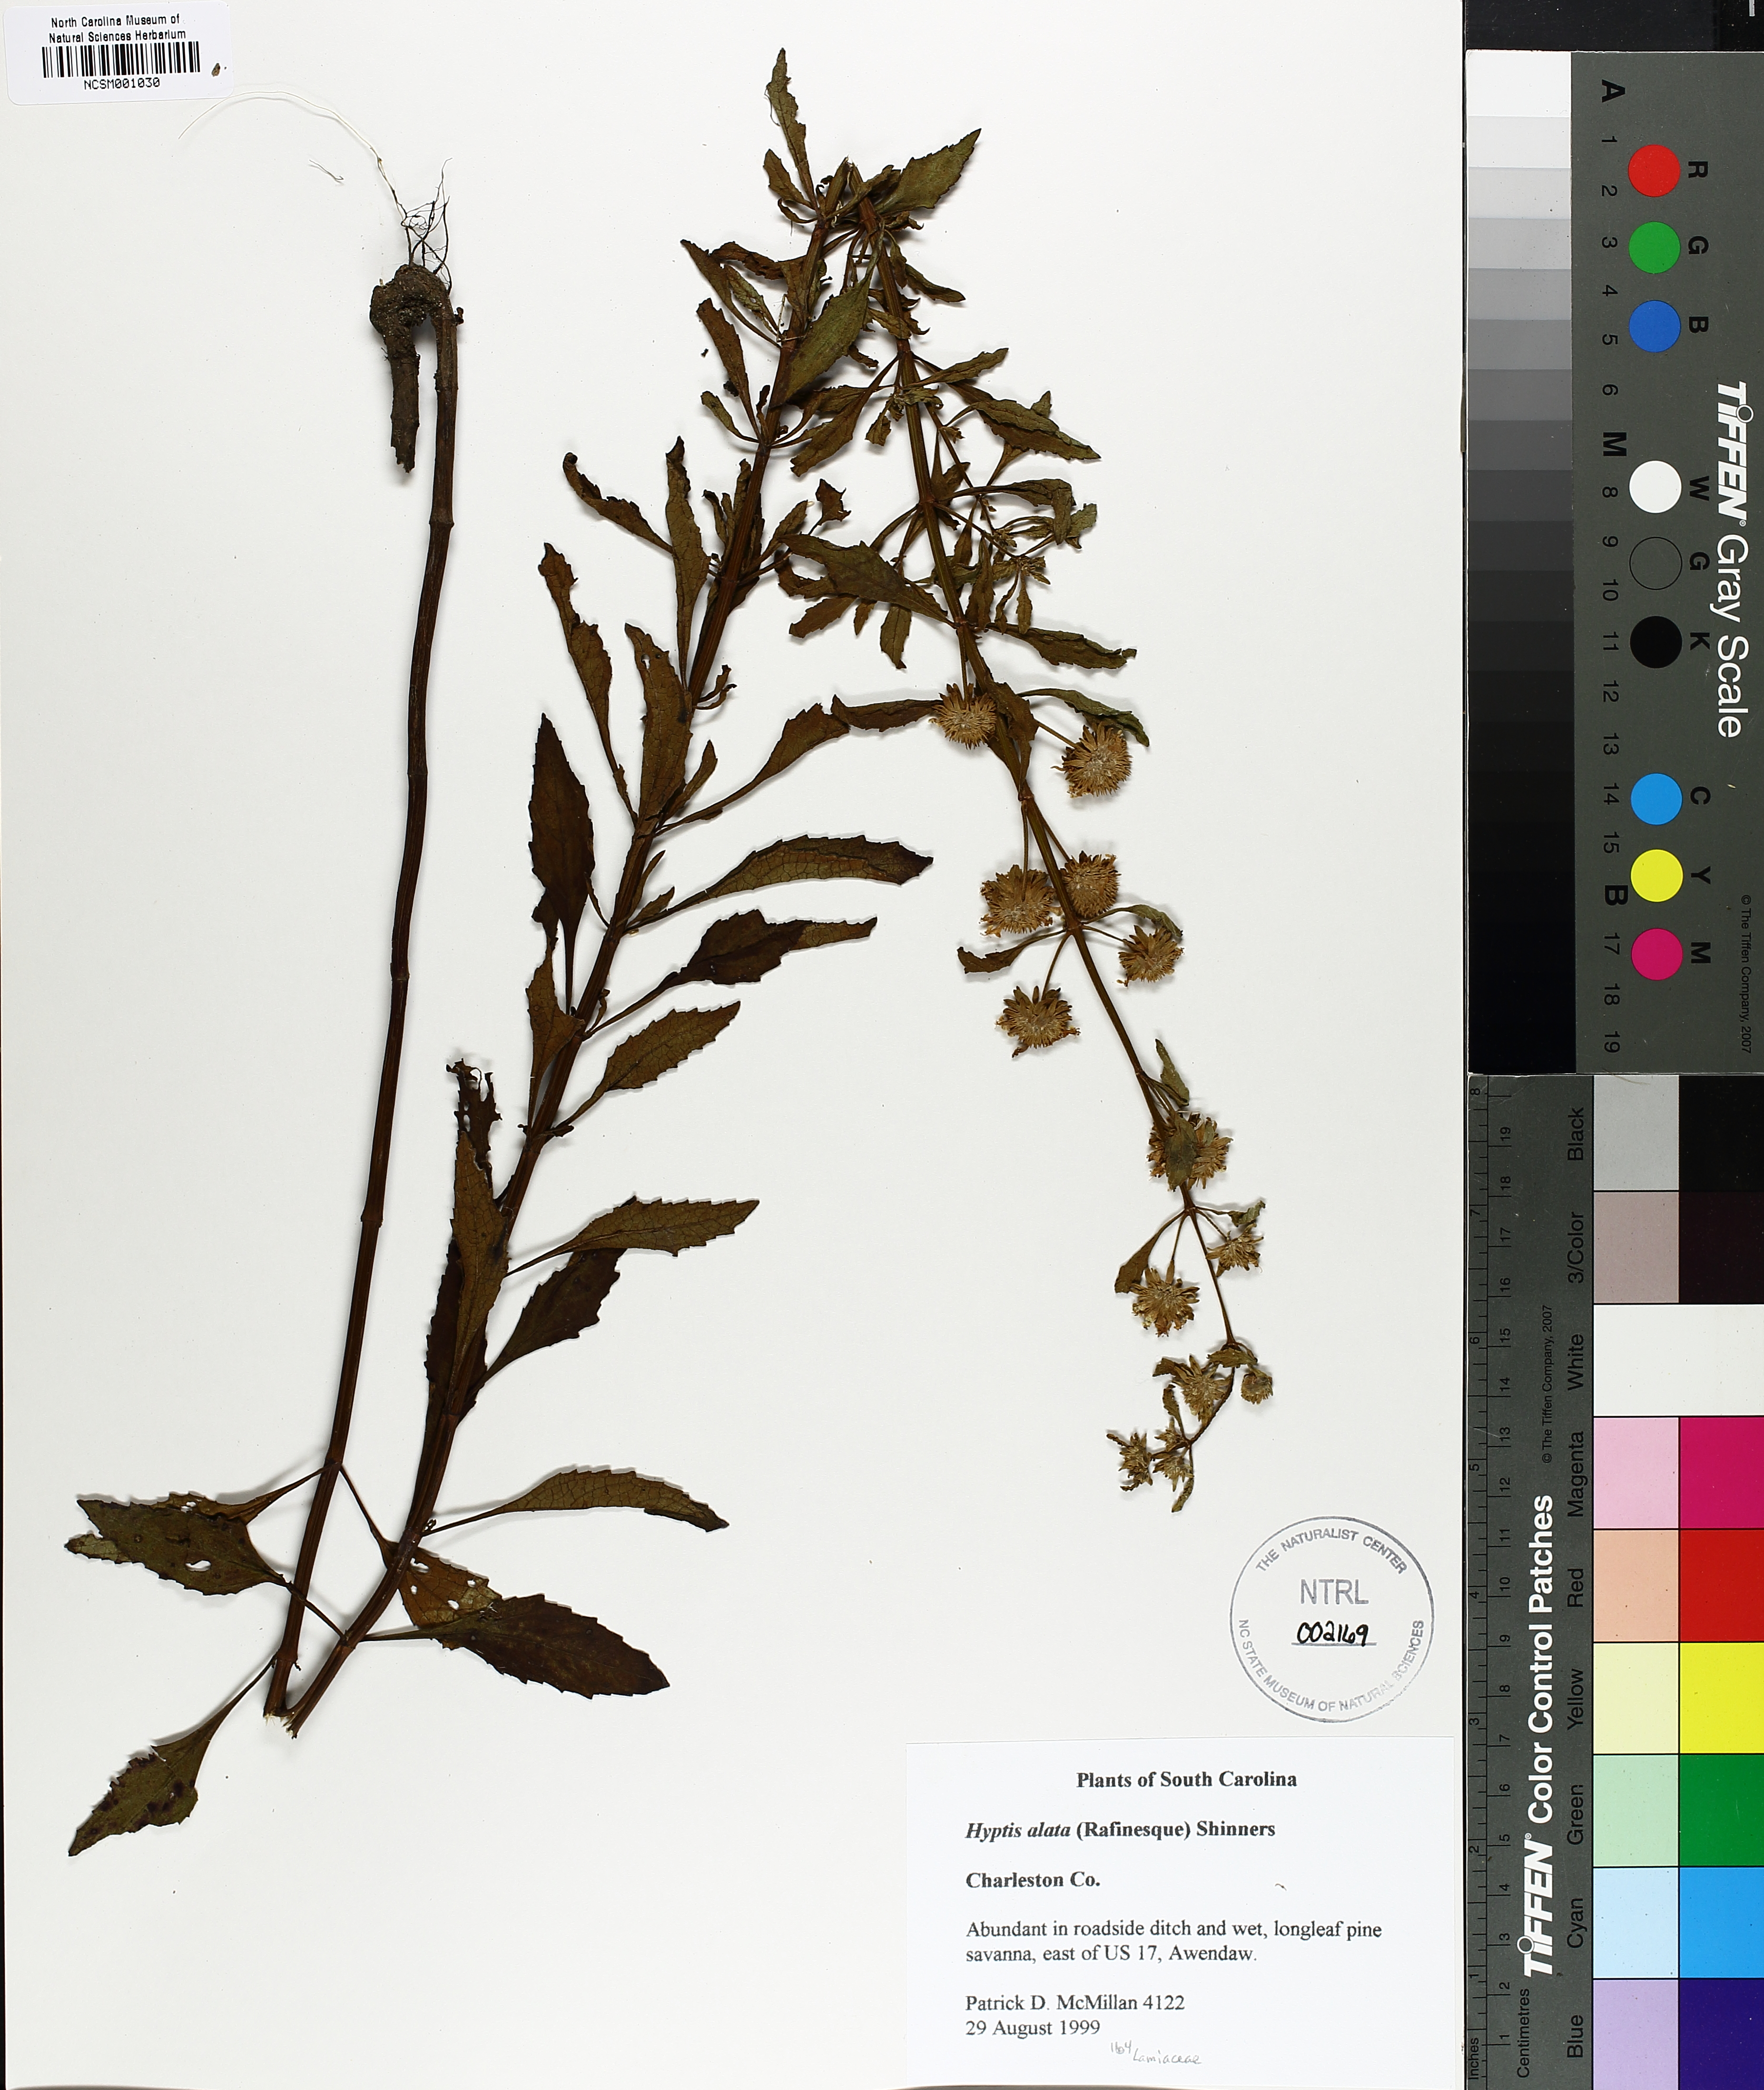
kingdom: Plantae
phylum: Tracheophyta
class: Magnoliopsida
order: Lamiales
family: Lamiaceae
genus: Hyptis
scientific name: Hyptis alata
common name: Cluster bush-mint
